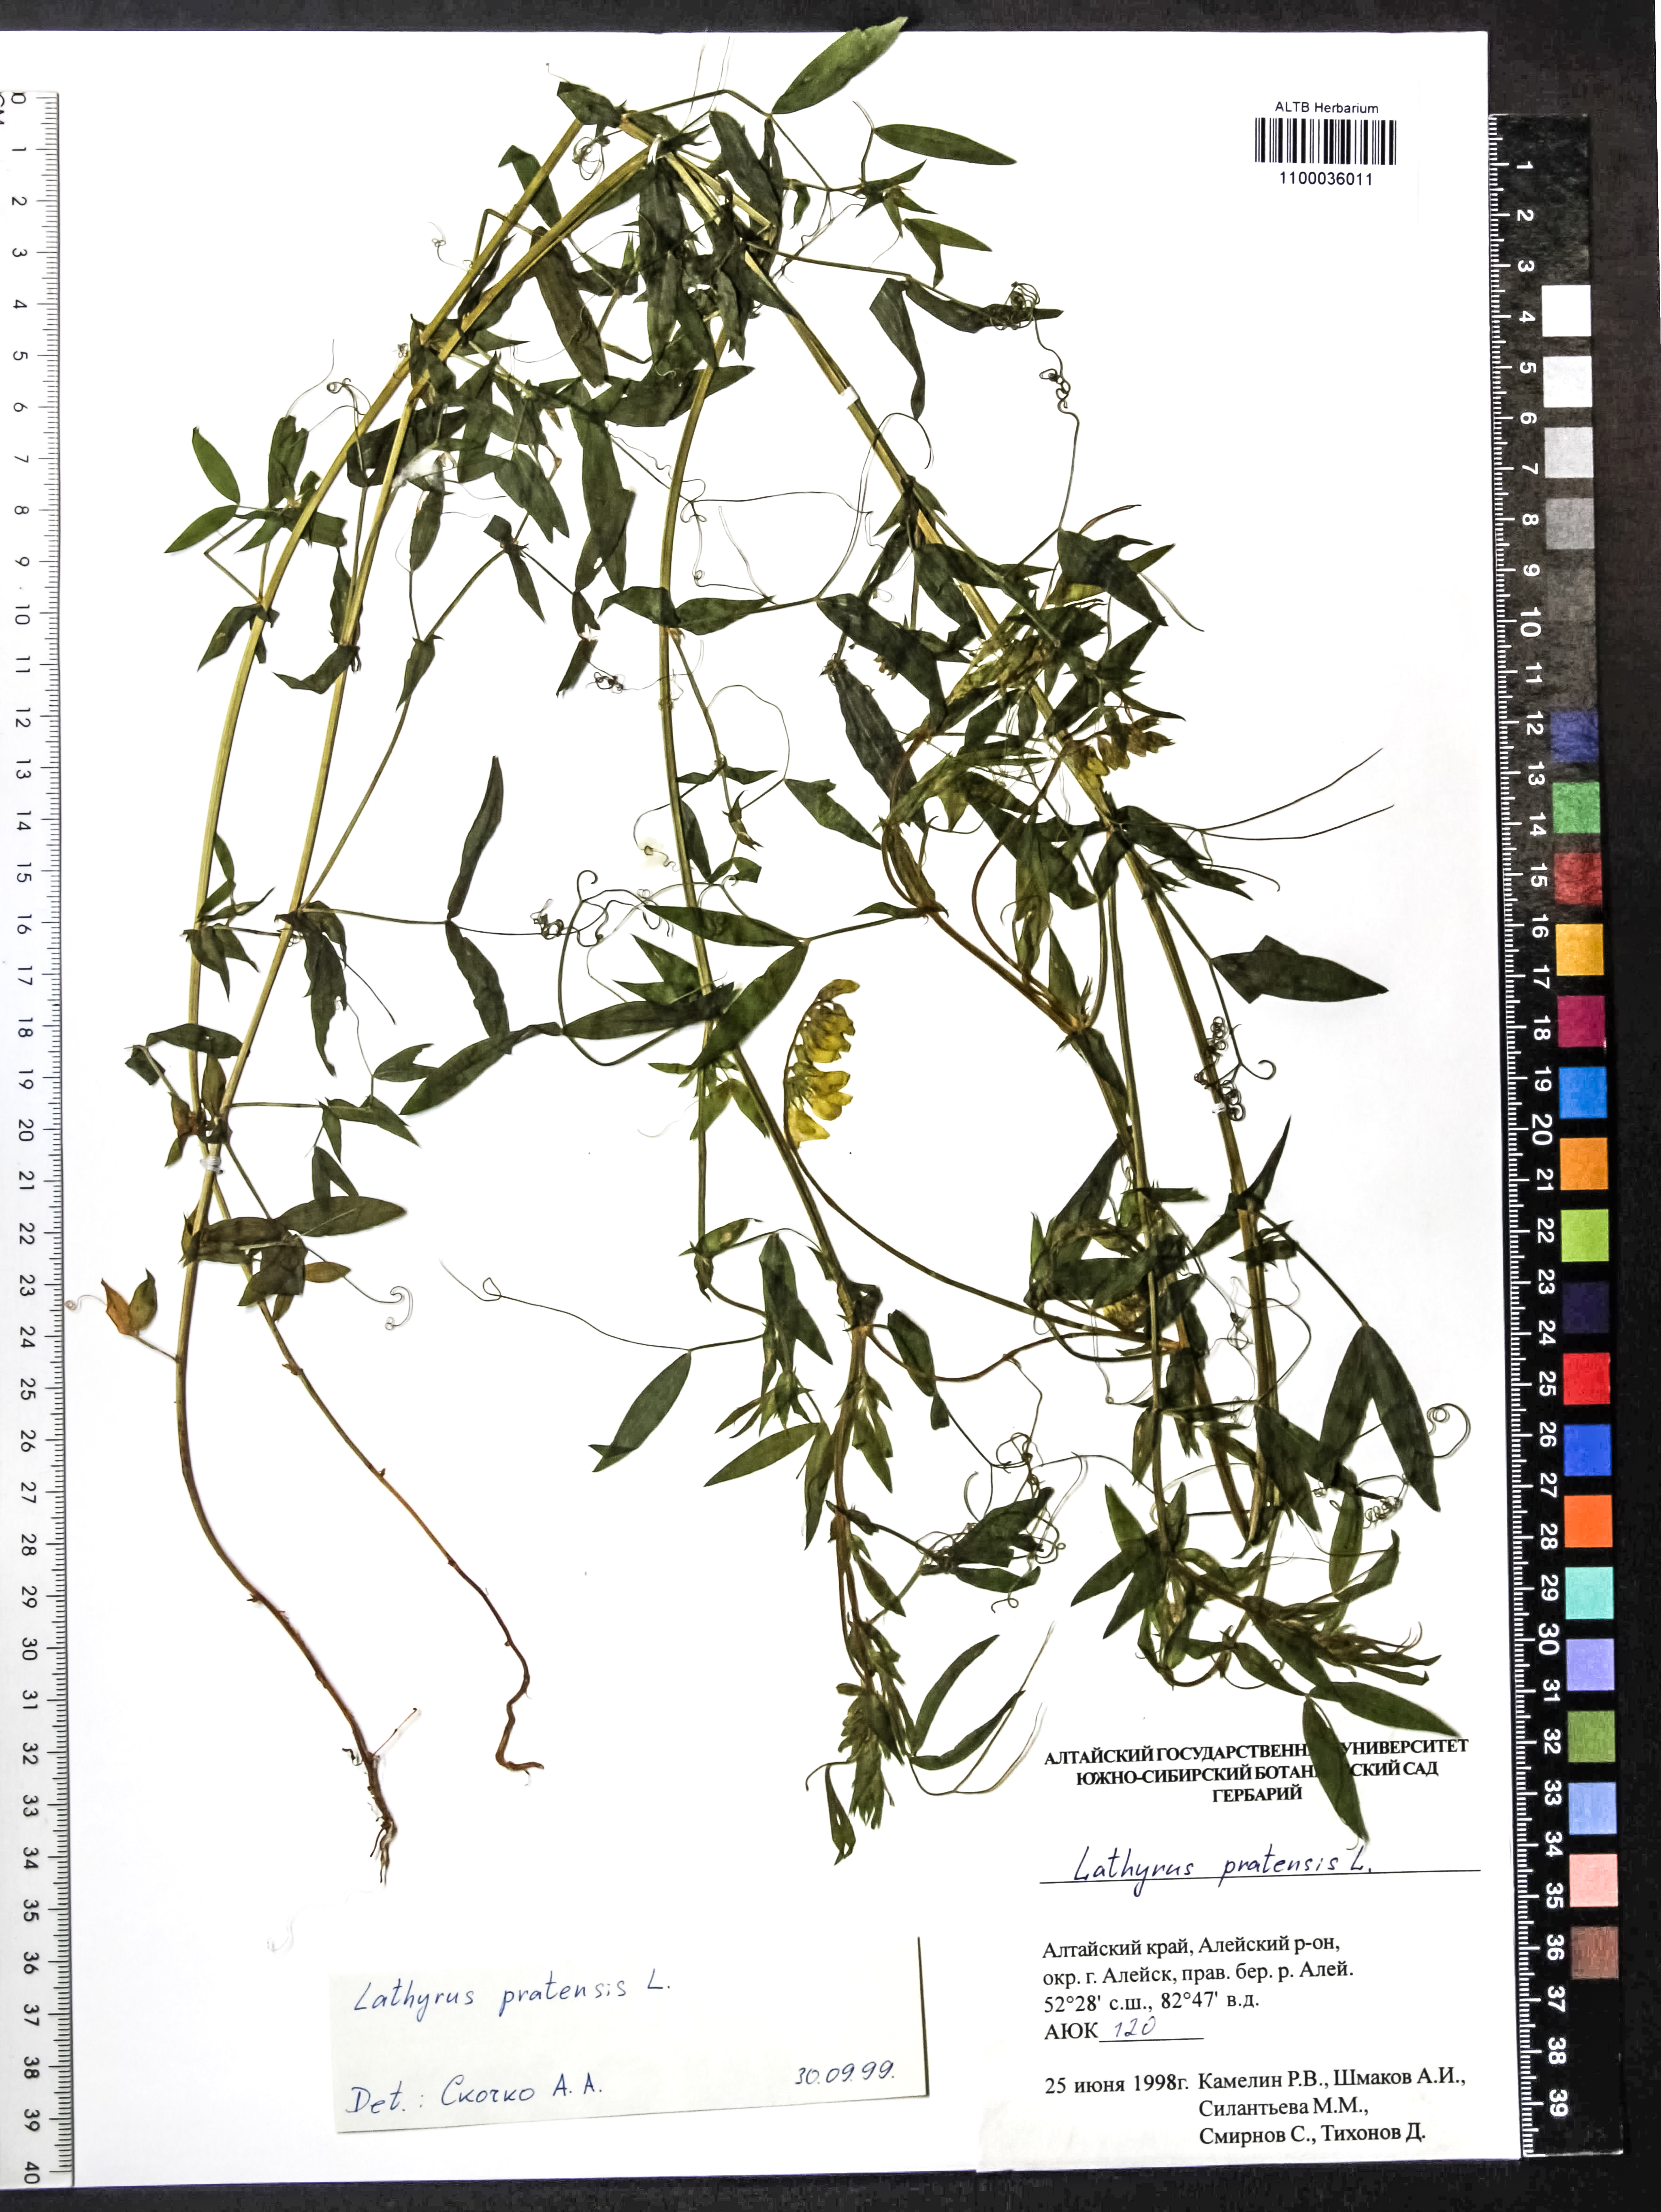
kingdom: Plantae
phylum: Tracheophyta
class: Magnoliopsida
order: Fabales
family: Fabaceae
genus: Lathyrus
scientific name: Lathyrus pratensis
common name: Meadow vetchling
